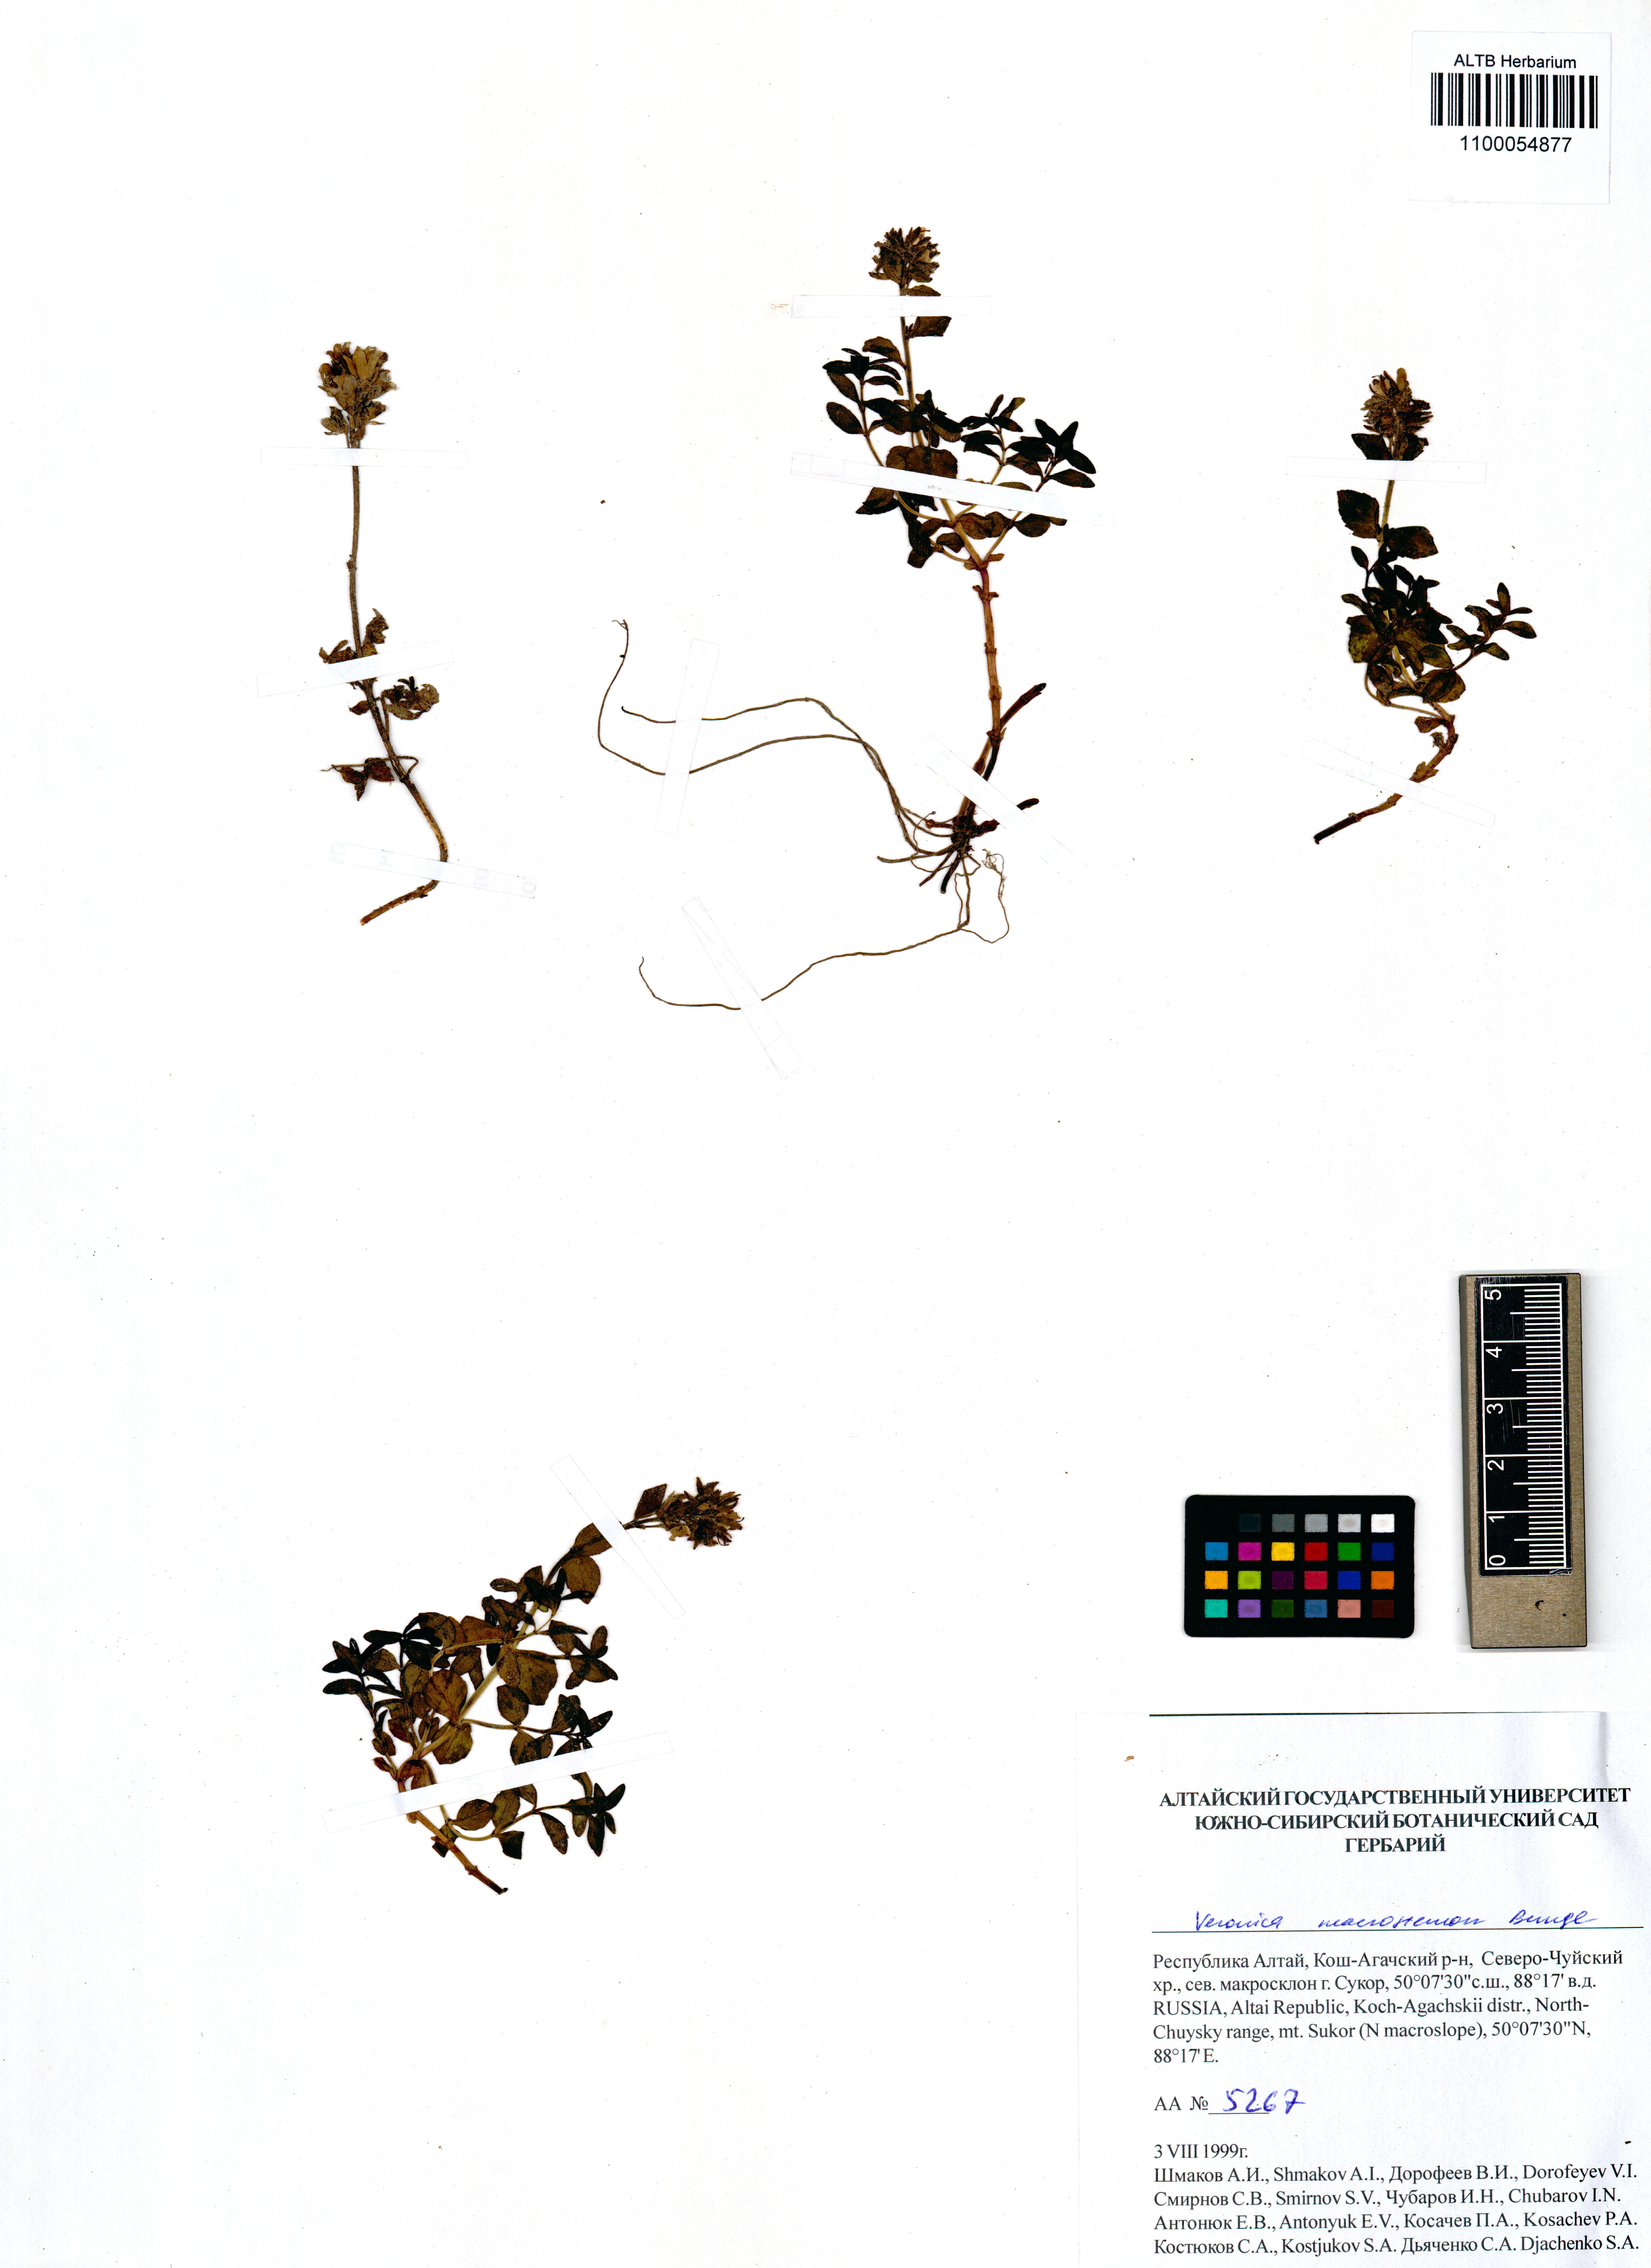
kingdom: Plantae
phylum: Tracheophyta
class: Magnoliopsida
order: Lamiales
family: Plantaginaceae
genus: Veronica
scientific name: Veronica macrostemon
